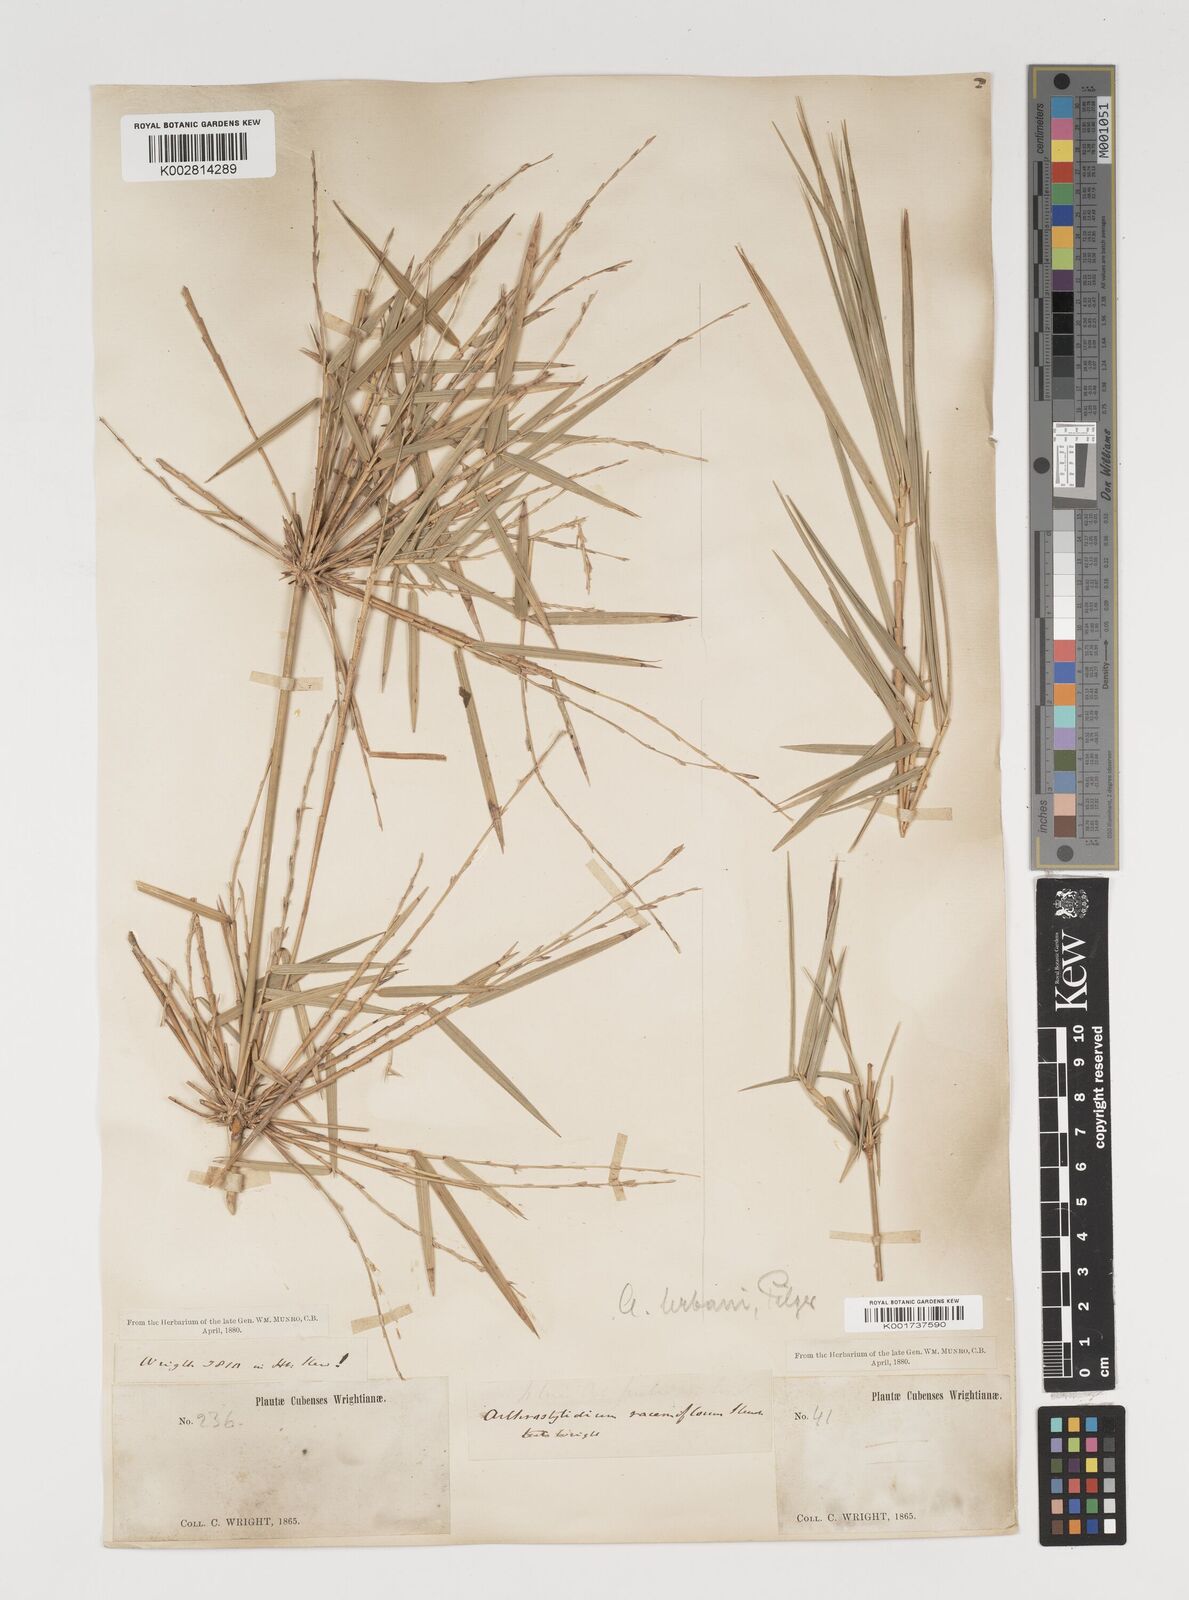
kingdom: Plantae
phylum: Tracheophyta
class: Liliopsida
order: Poales
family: Poaceae
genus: Arthrostylidium
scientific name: Arthrostylidium urbanii
